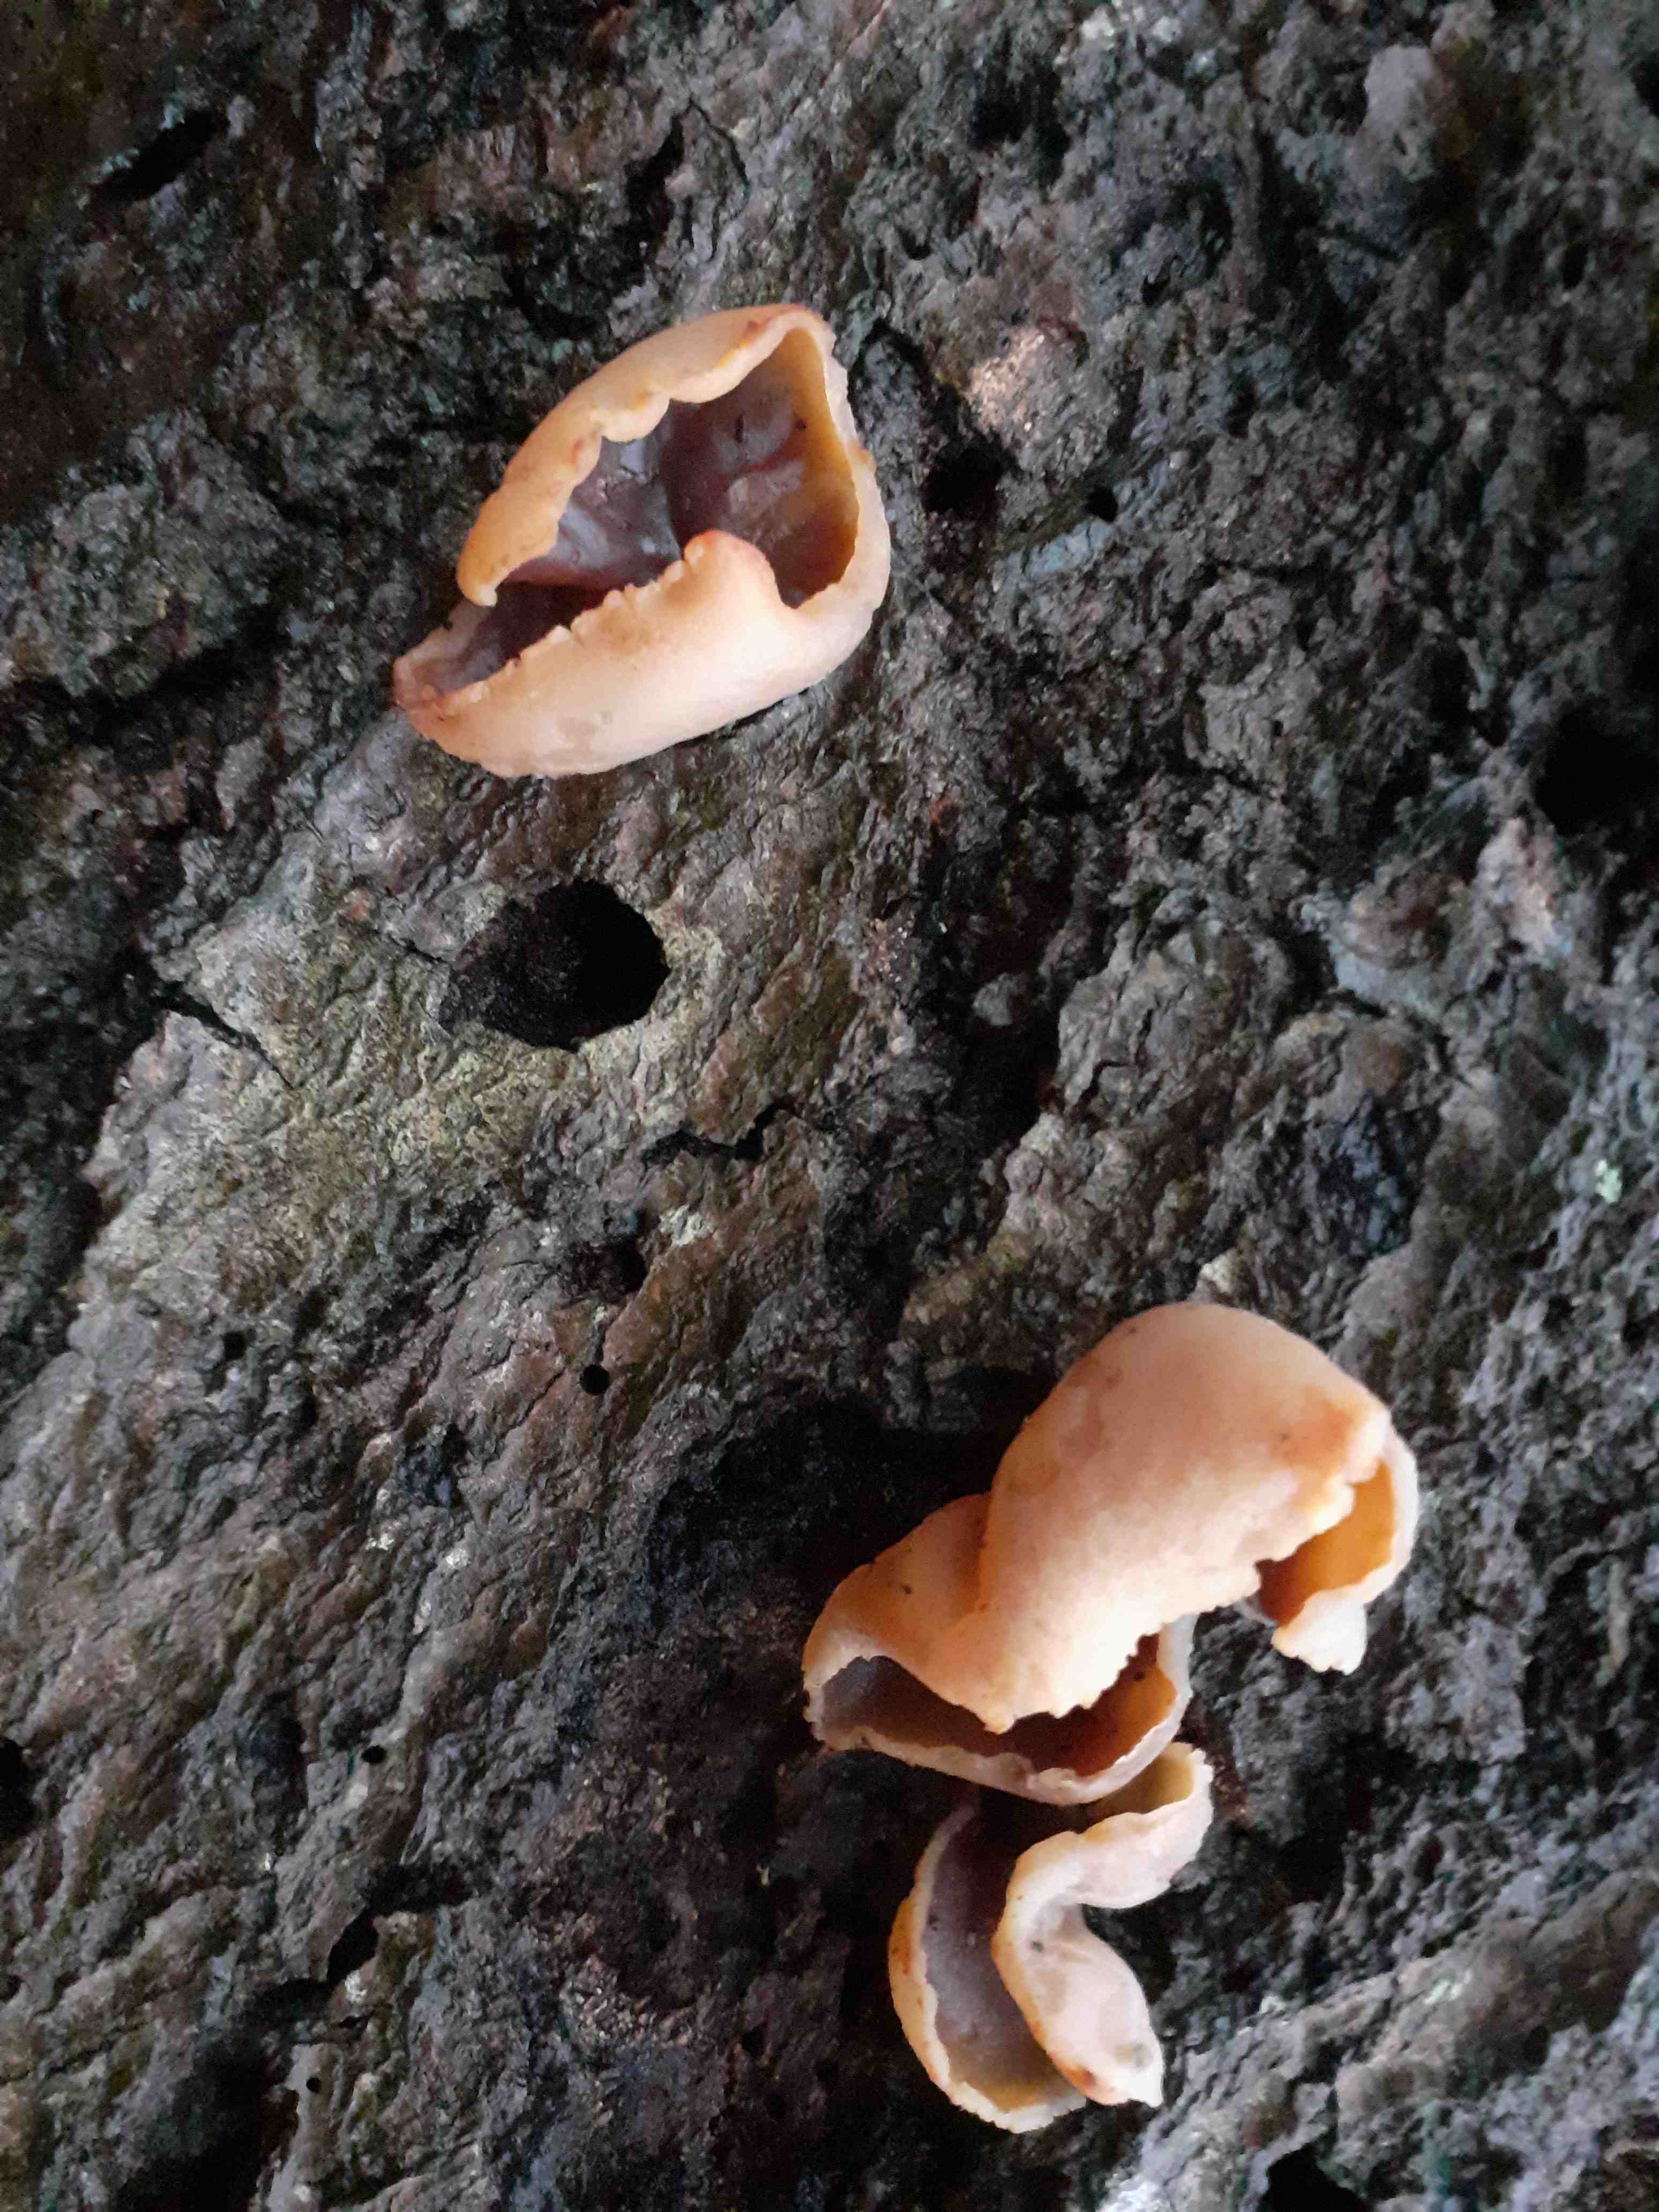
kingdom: Fungi
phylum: Ascomycota
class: Pezizomycetes
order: Pezizales
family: Pezizaceae
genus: Peziza
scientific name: Peziza varia
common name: Ved-bægersvamp
